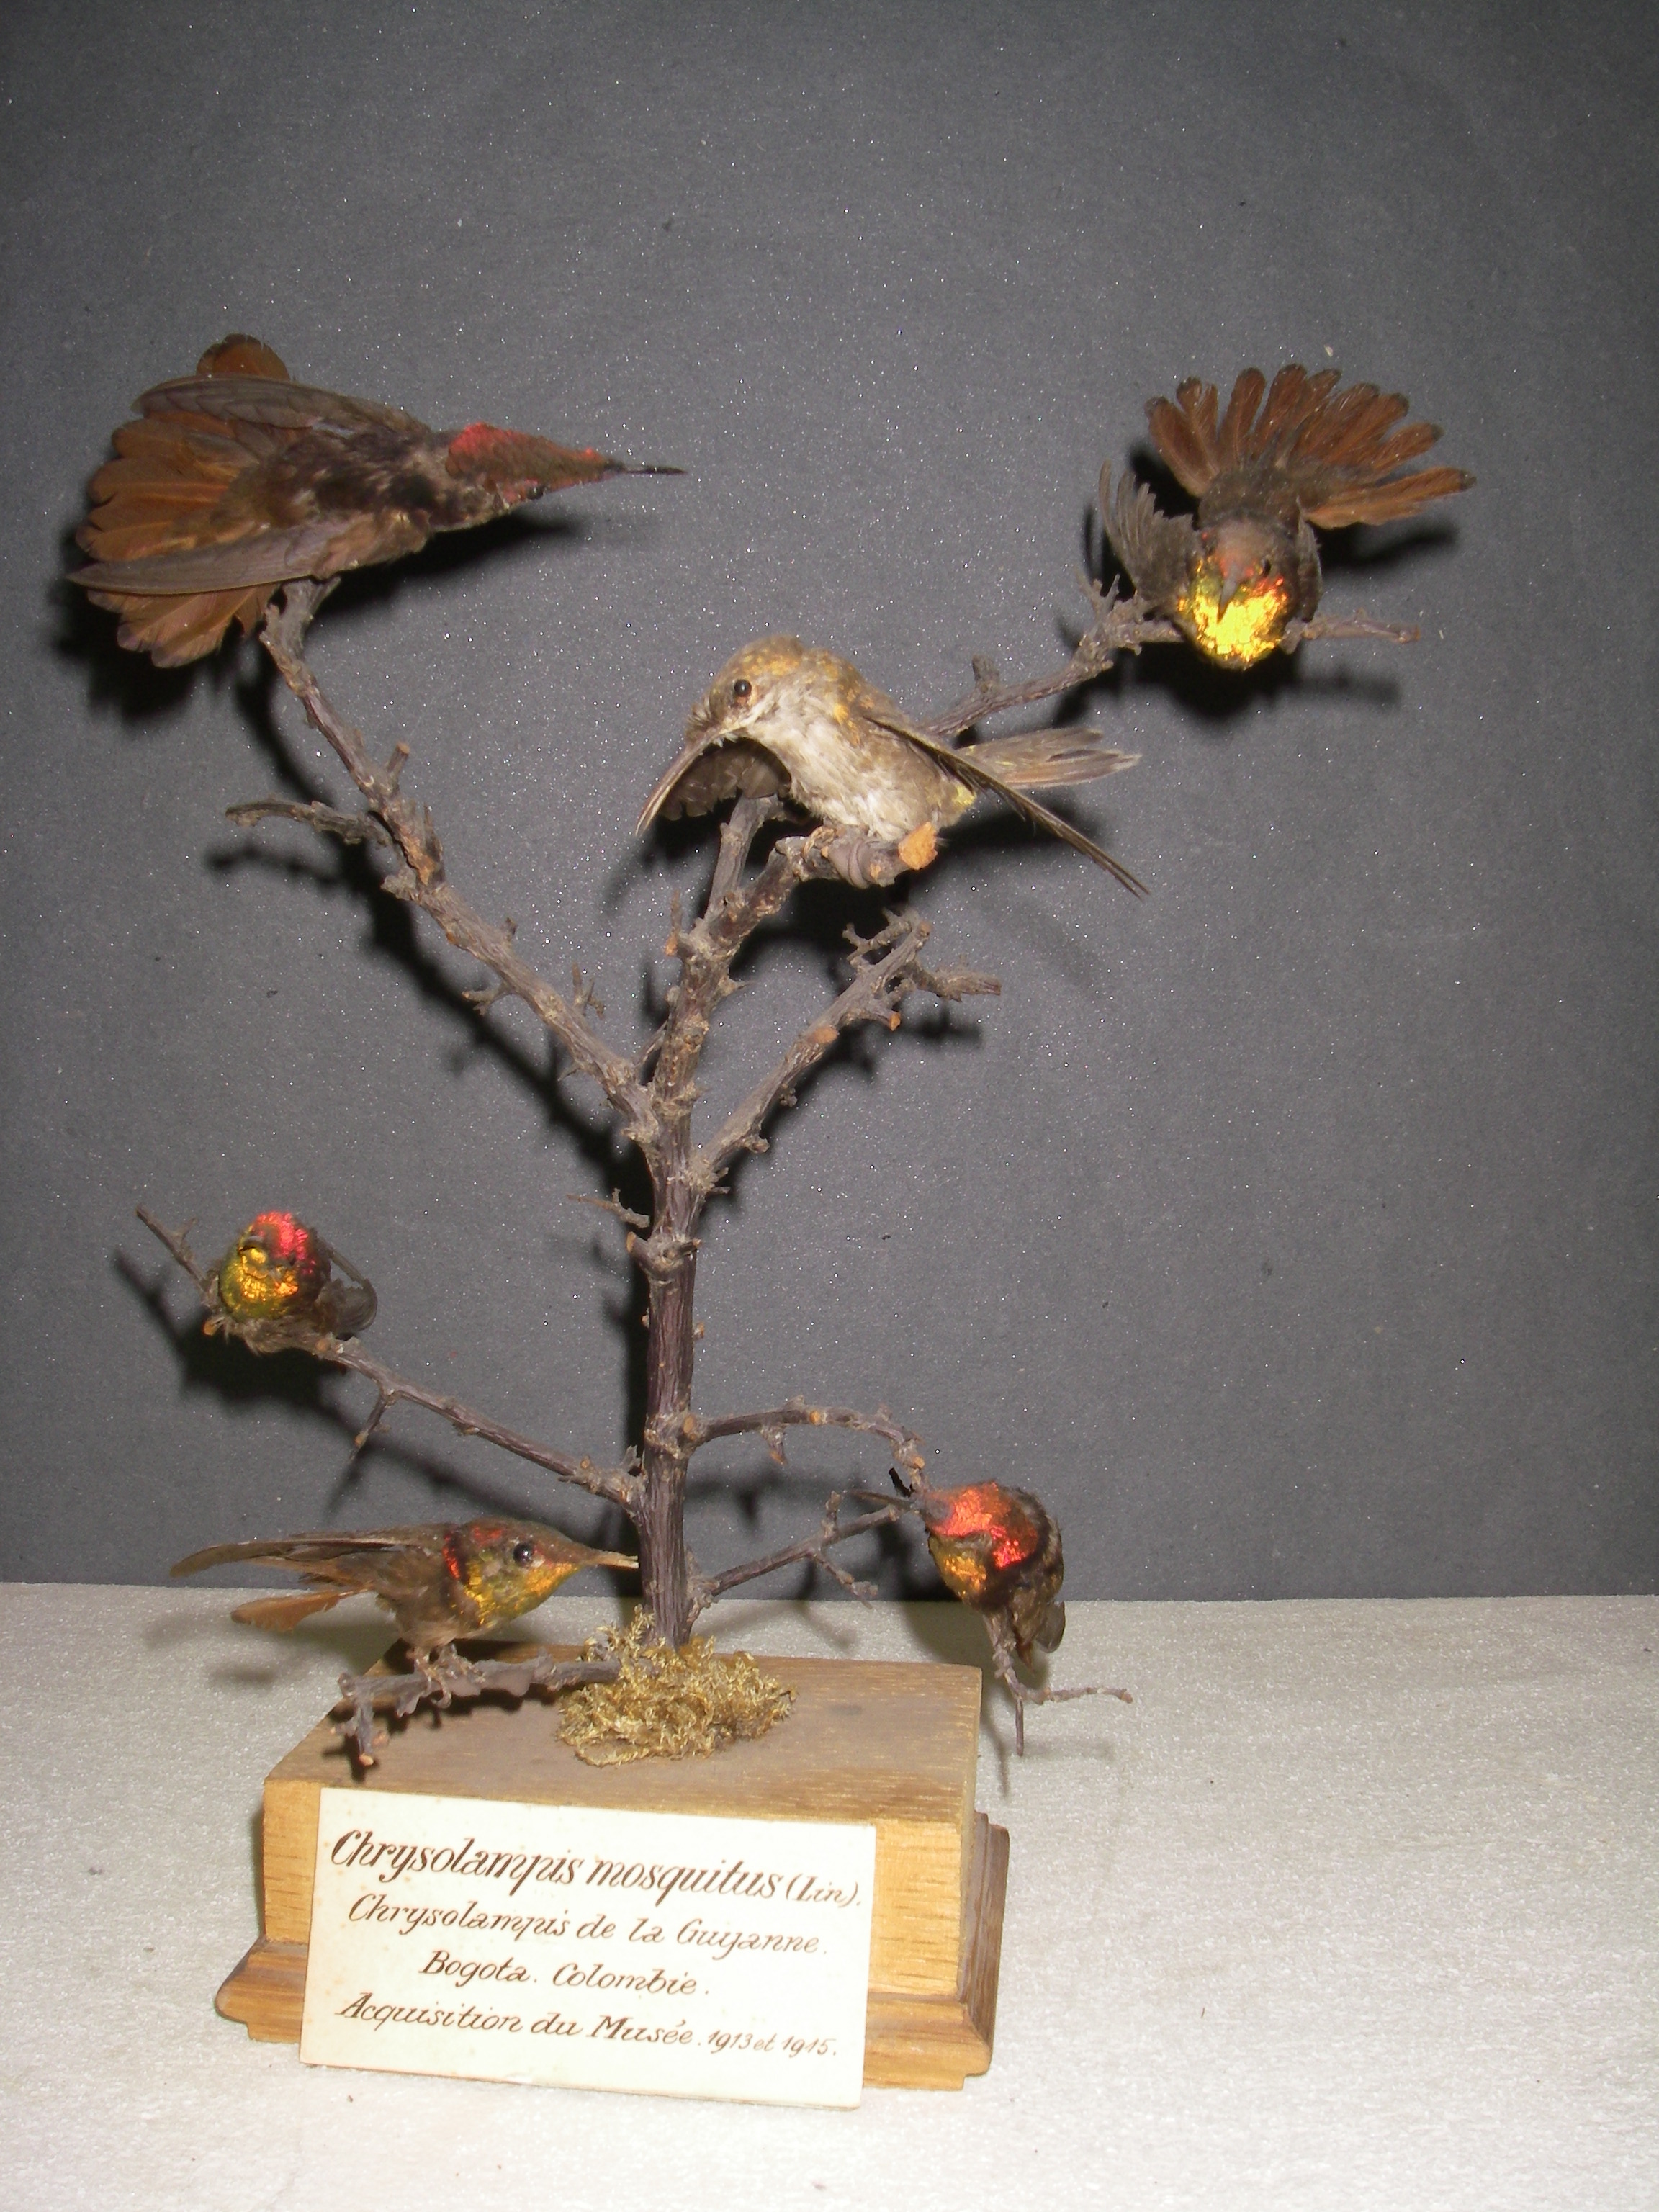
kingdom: Animalia
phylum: Chordata
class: Aves
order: Apodiformes
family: Trochilidae
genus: Chrysolampis
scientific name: Chrysolampis mosquitus
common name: Ruby-topaz hummingbird
